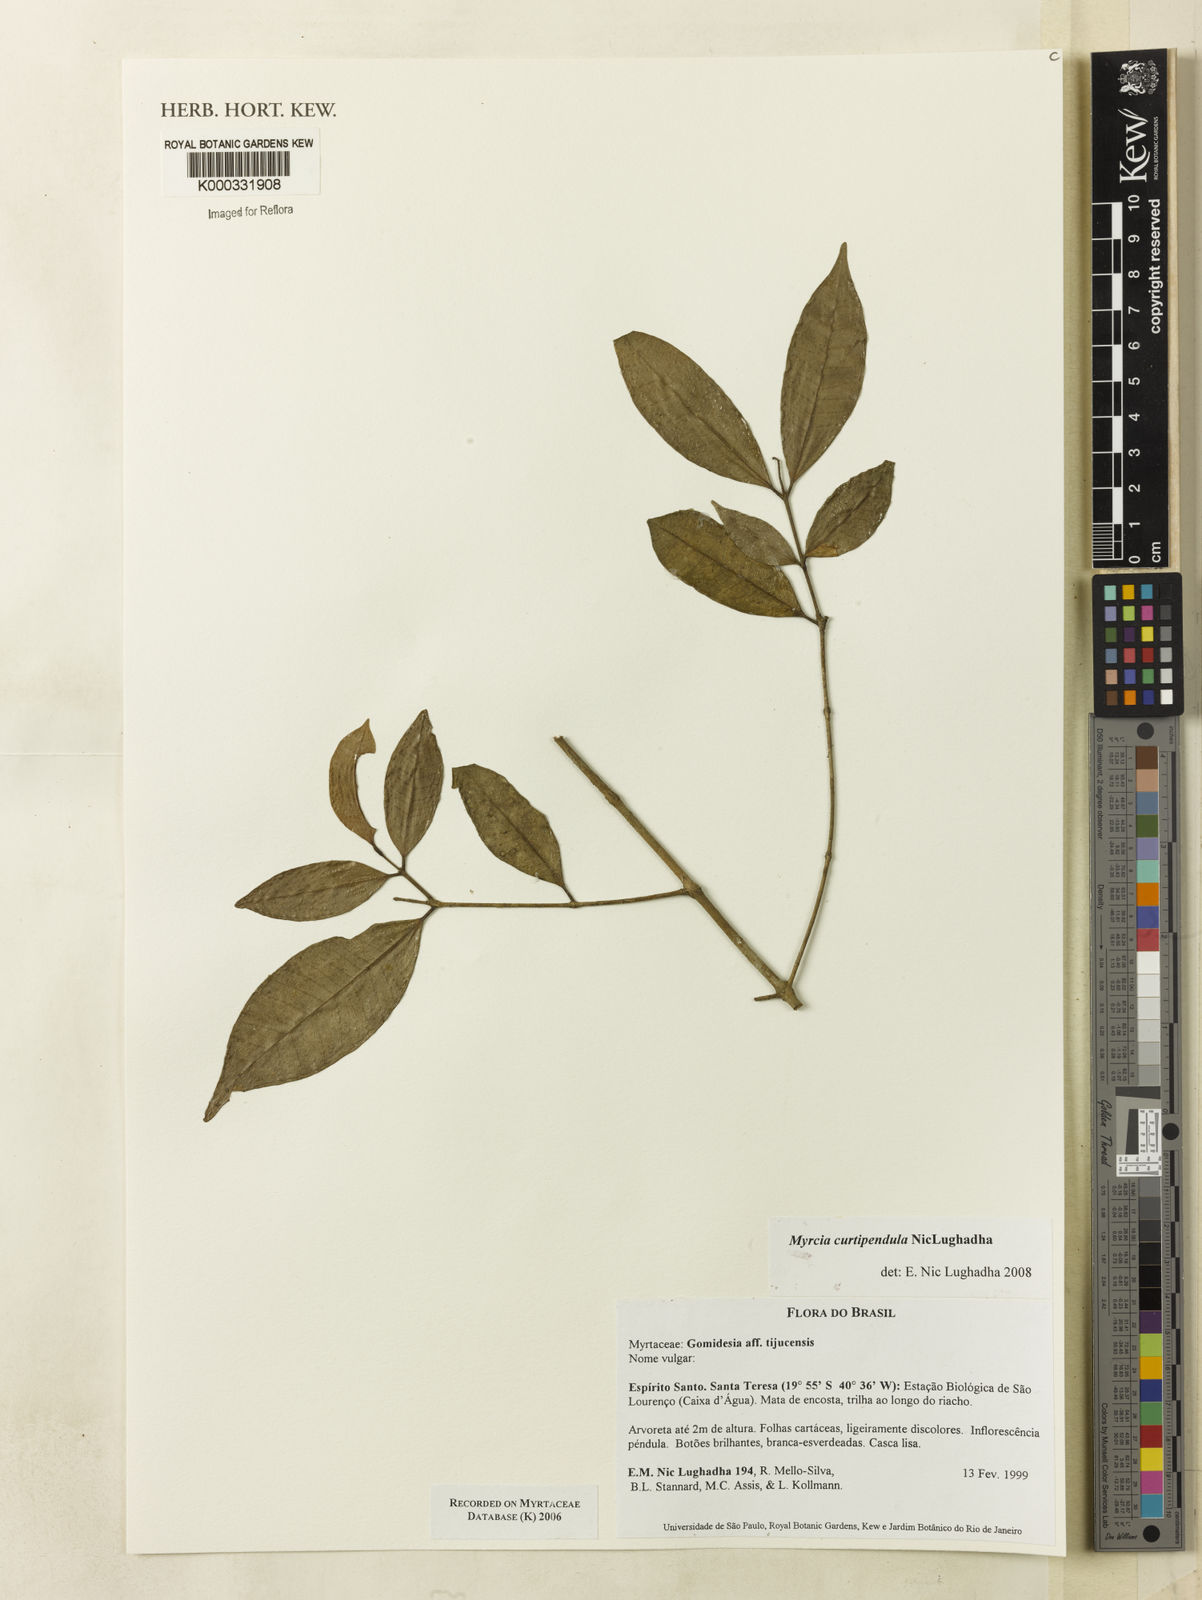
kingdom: Plantae
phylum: Tracheophyta
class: Magnoliopsida
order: Myrtales
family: Myrtaceae
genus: Myrcia
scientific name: Myrcia tijucensis
